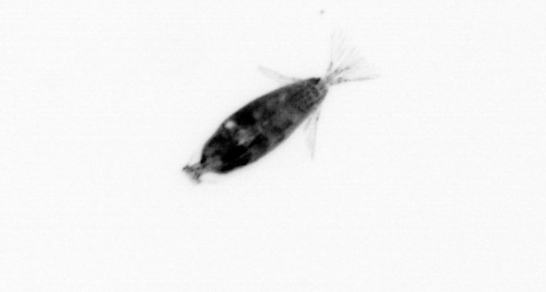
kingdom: Animalia
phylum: Arthropoda
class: Maxillopoda
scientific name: Maxillopoda
